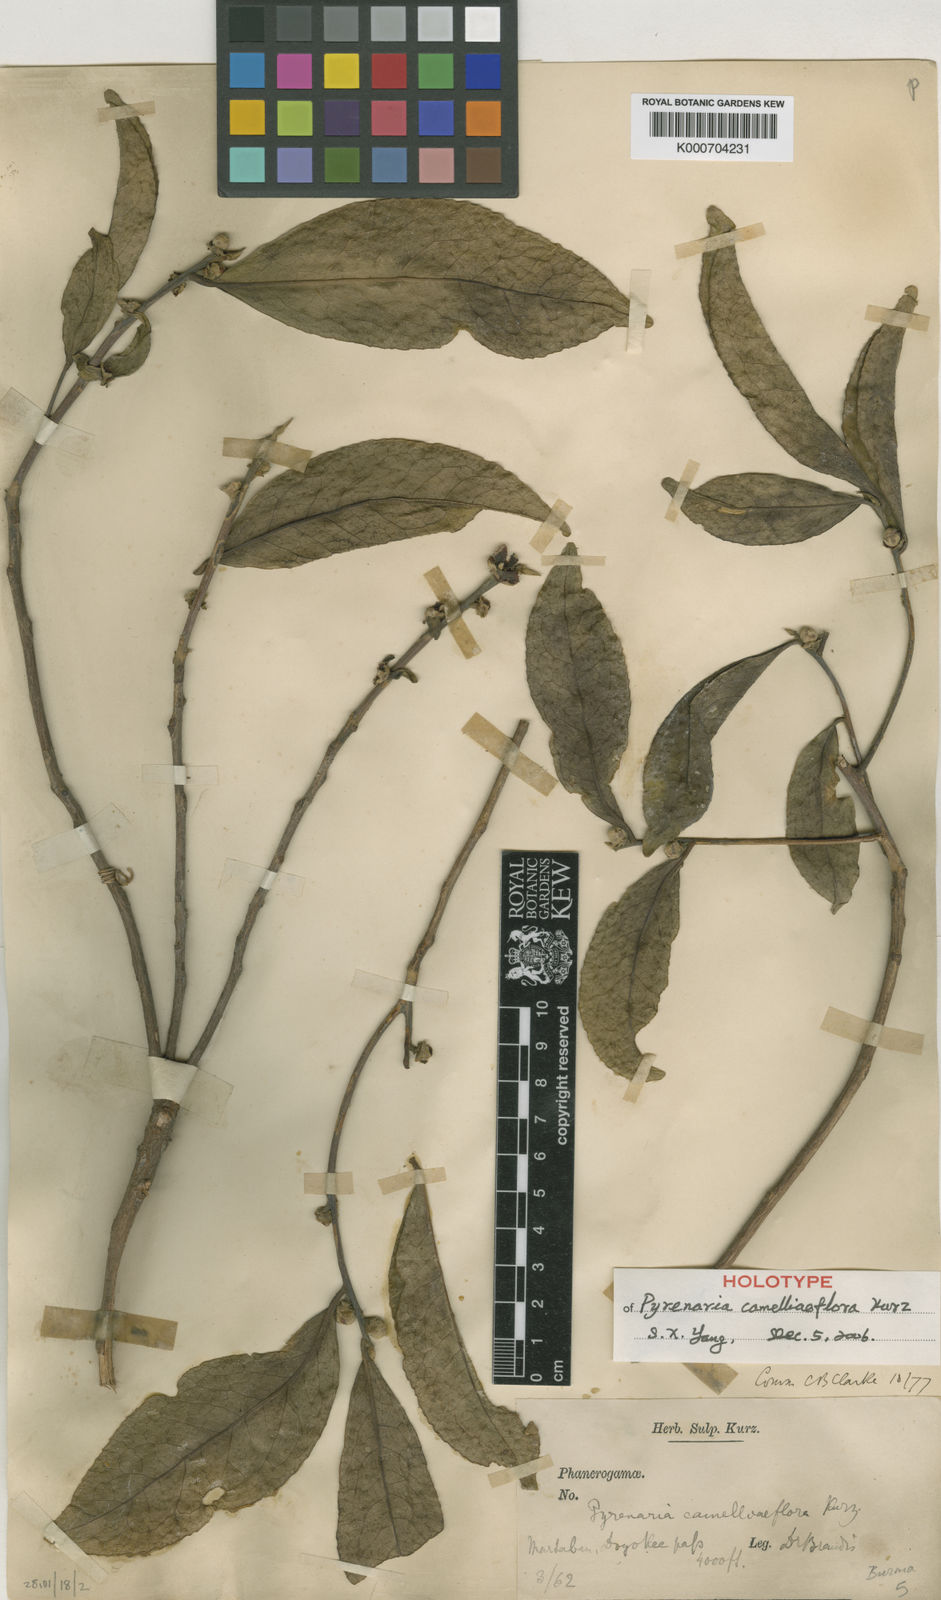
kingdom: Plantae
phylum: Tracheophyta
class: Magnoliopsida
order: Ericales
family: Theaceae
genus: Pyrenaria
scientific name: Pyrenaria diospyricarpa
